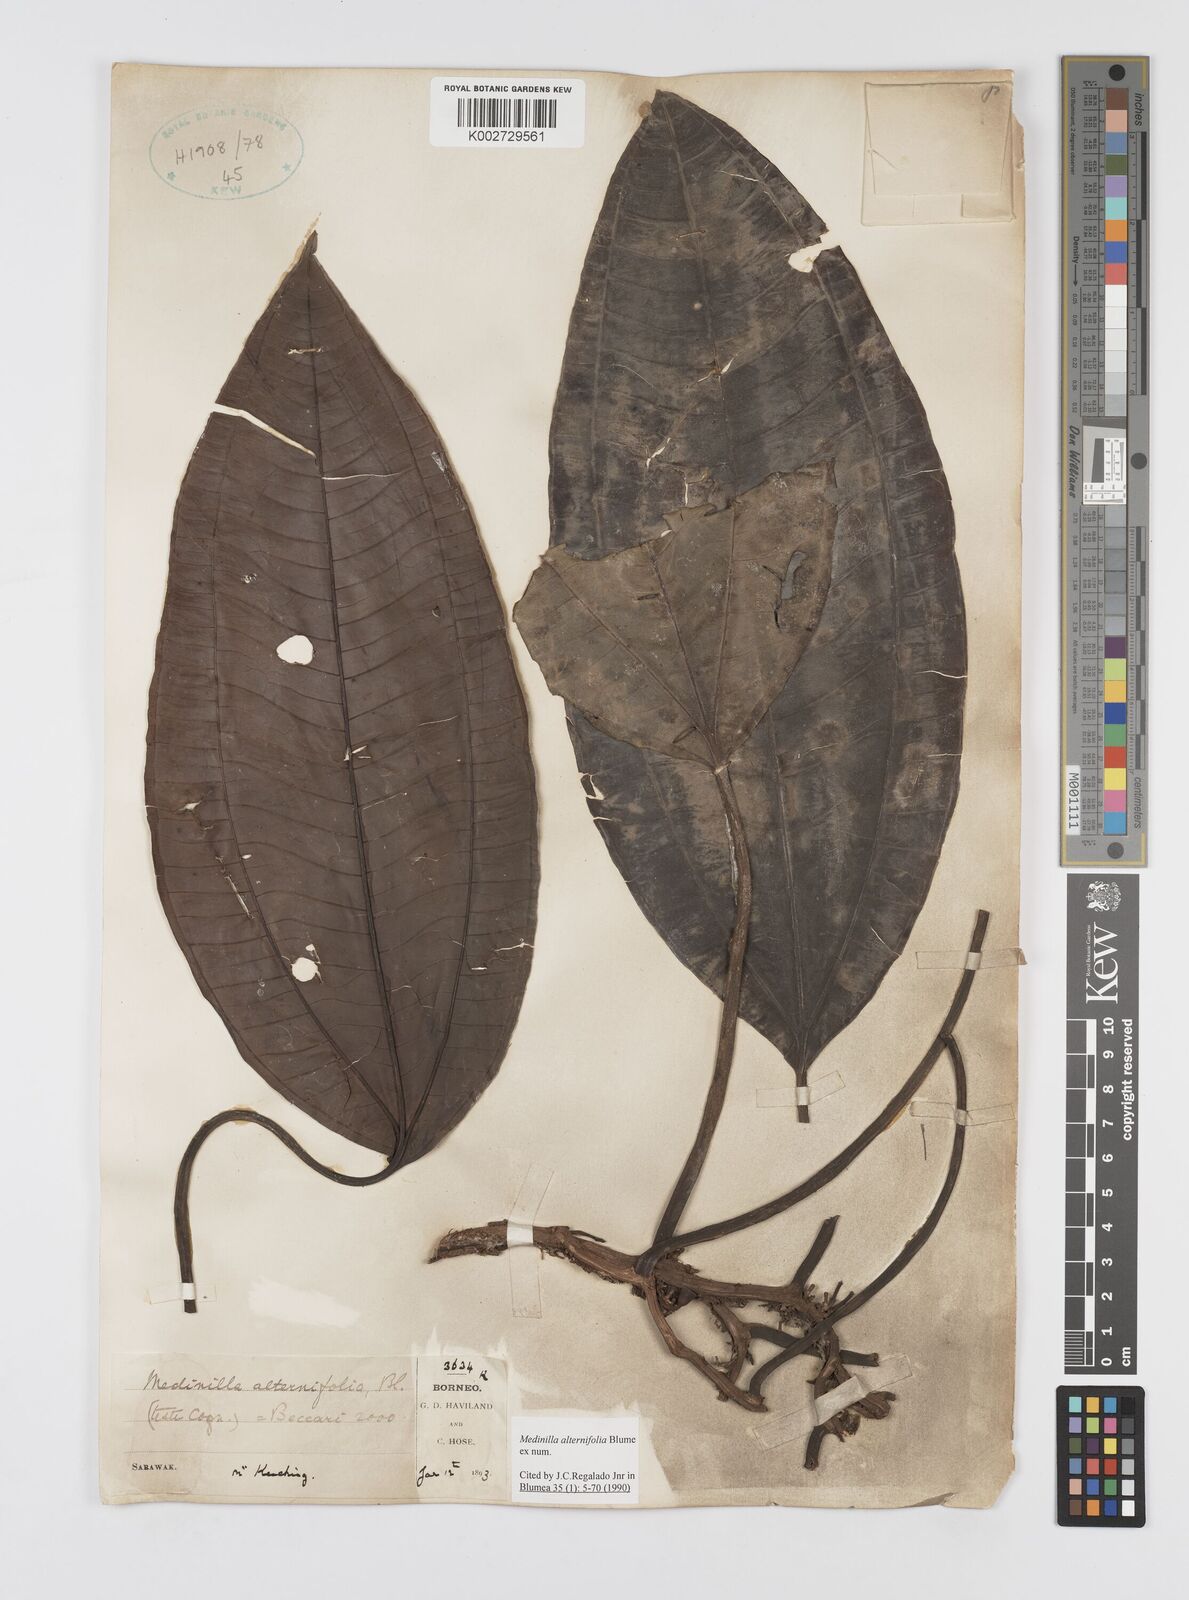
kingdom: Plantae
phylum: Tracheophyta
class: Magnoliopsida
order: Myrtales
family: Melastomataceae
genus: Heteroblemma
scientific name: Heteroblemma alternifolium
